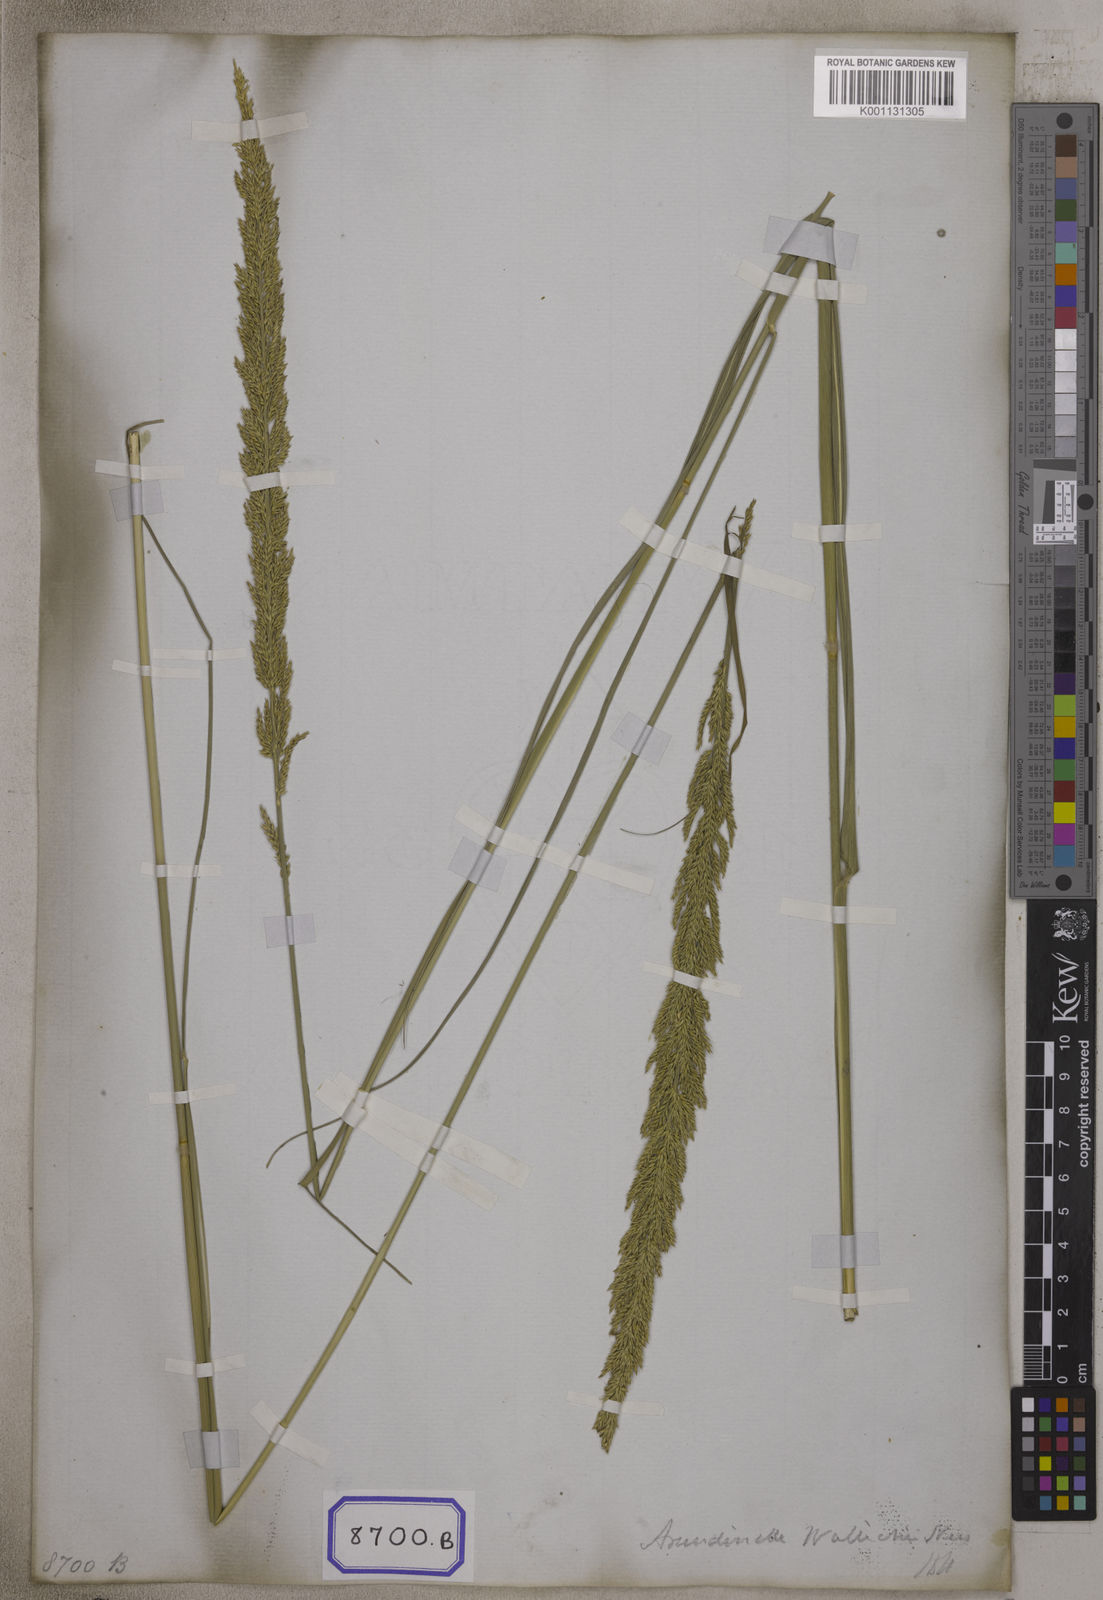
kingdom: Plantae
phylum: Tracheophyta
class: Liliopsida
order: Poales
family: Poaceae
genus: Panicum
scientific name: Panicum
